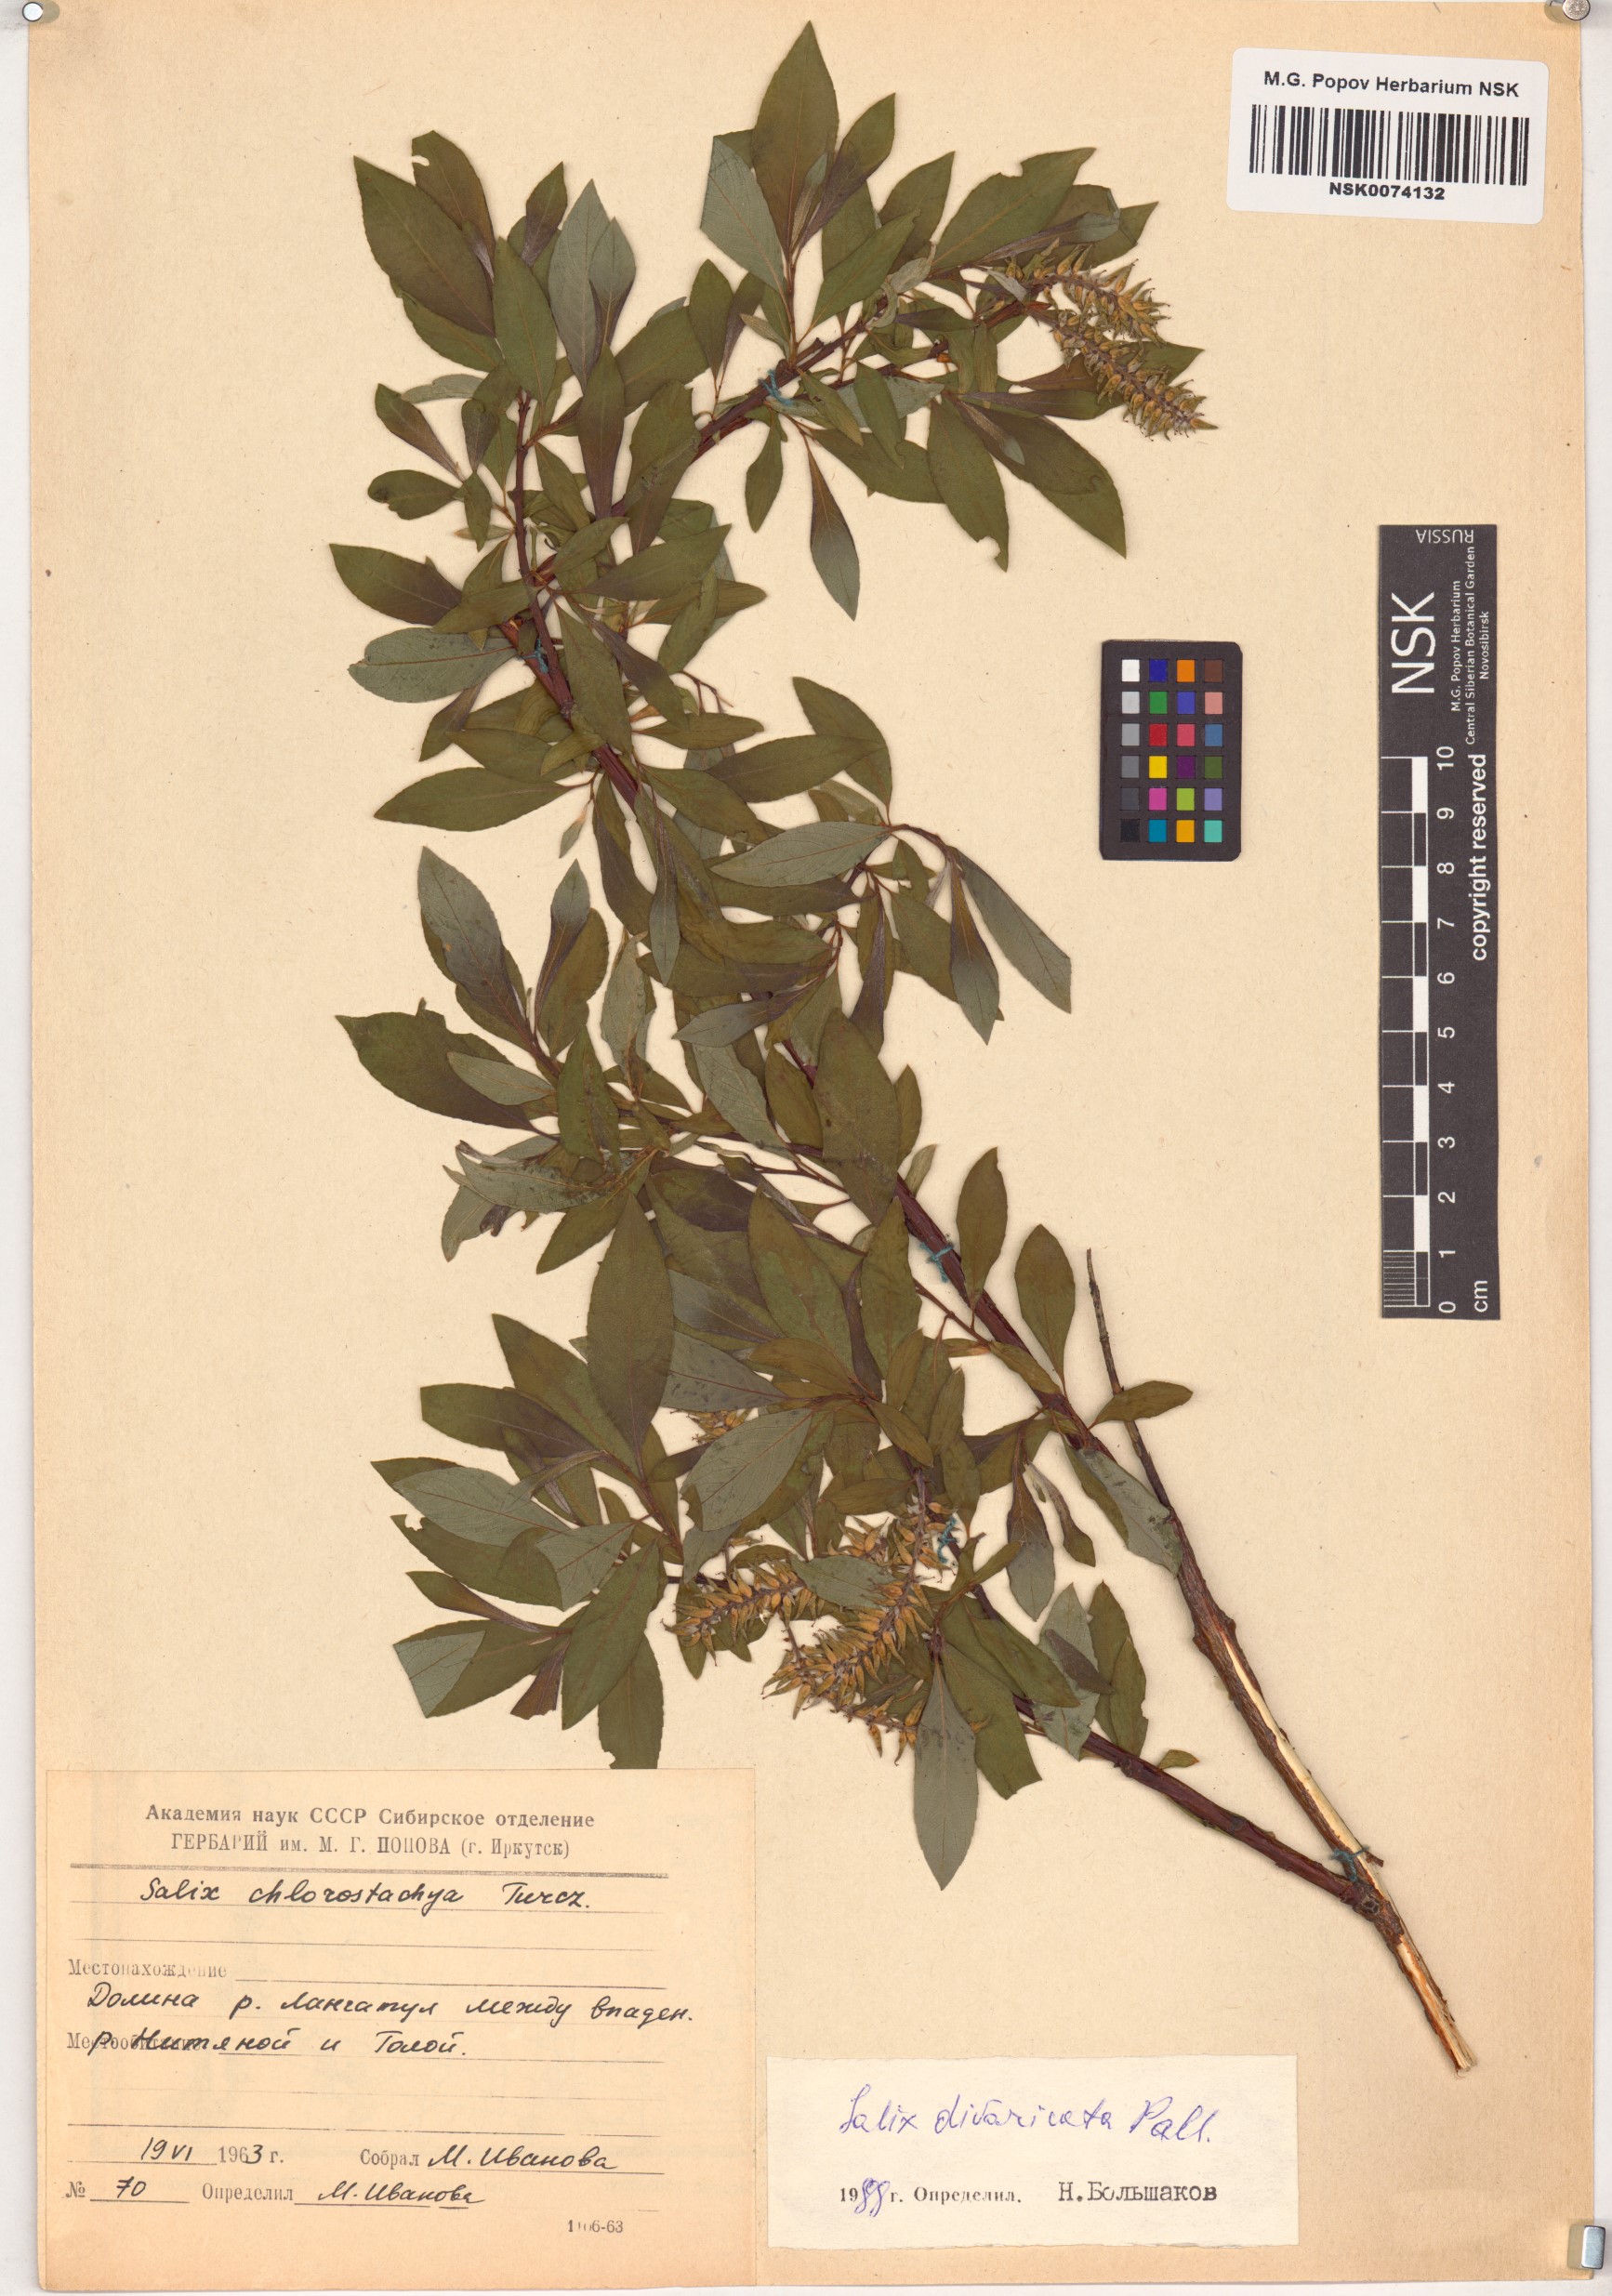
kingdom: Plantae
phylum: Tracheophyta
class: Magnoliopsida
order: Malpighiales
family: Salicaceae
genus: Salix
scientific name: Salix divaricata
